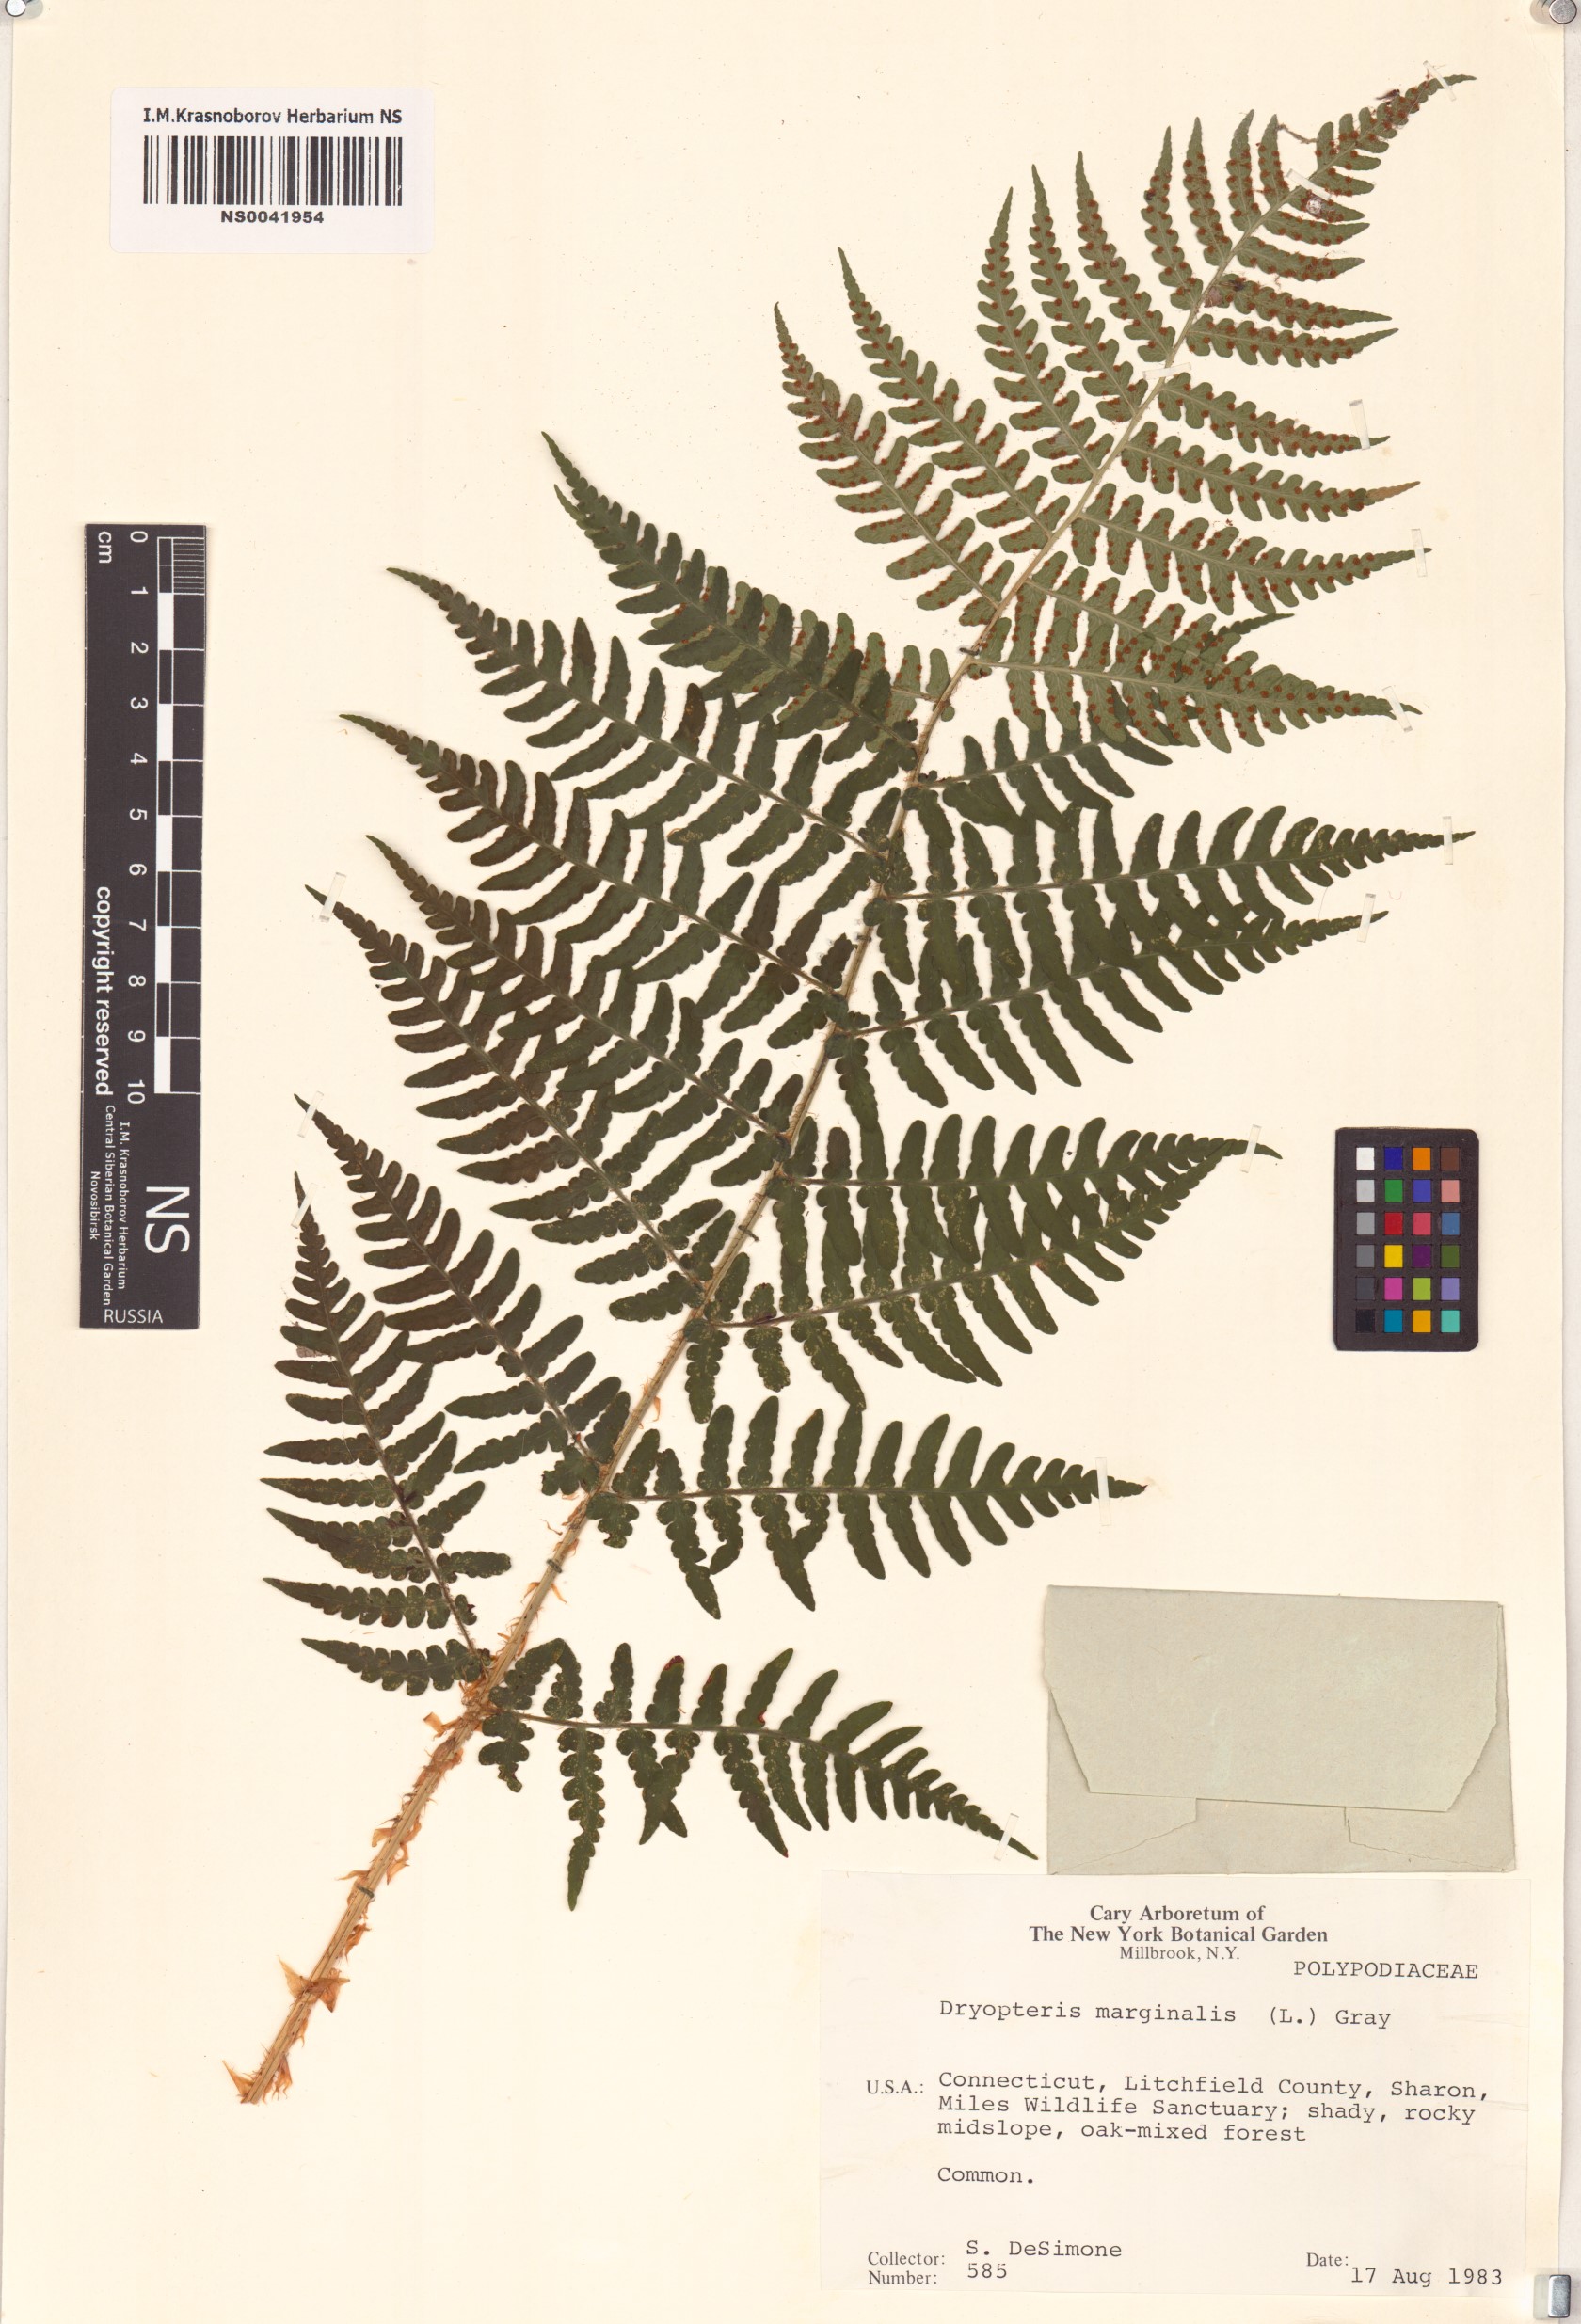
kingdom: Plantae
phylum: Tracheophyta
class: Polypodiopsida
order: Polypodiales
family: Dryopteridaceae
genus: Dryopteris
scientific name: Dryopteris marginalis
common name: Marginal wood fern
